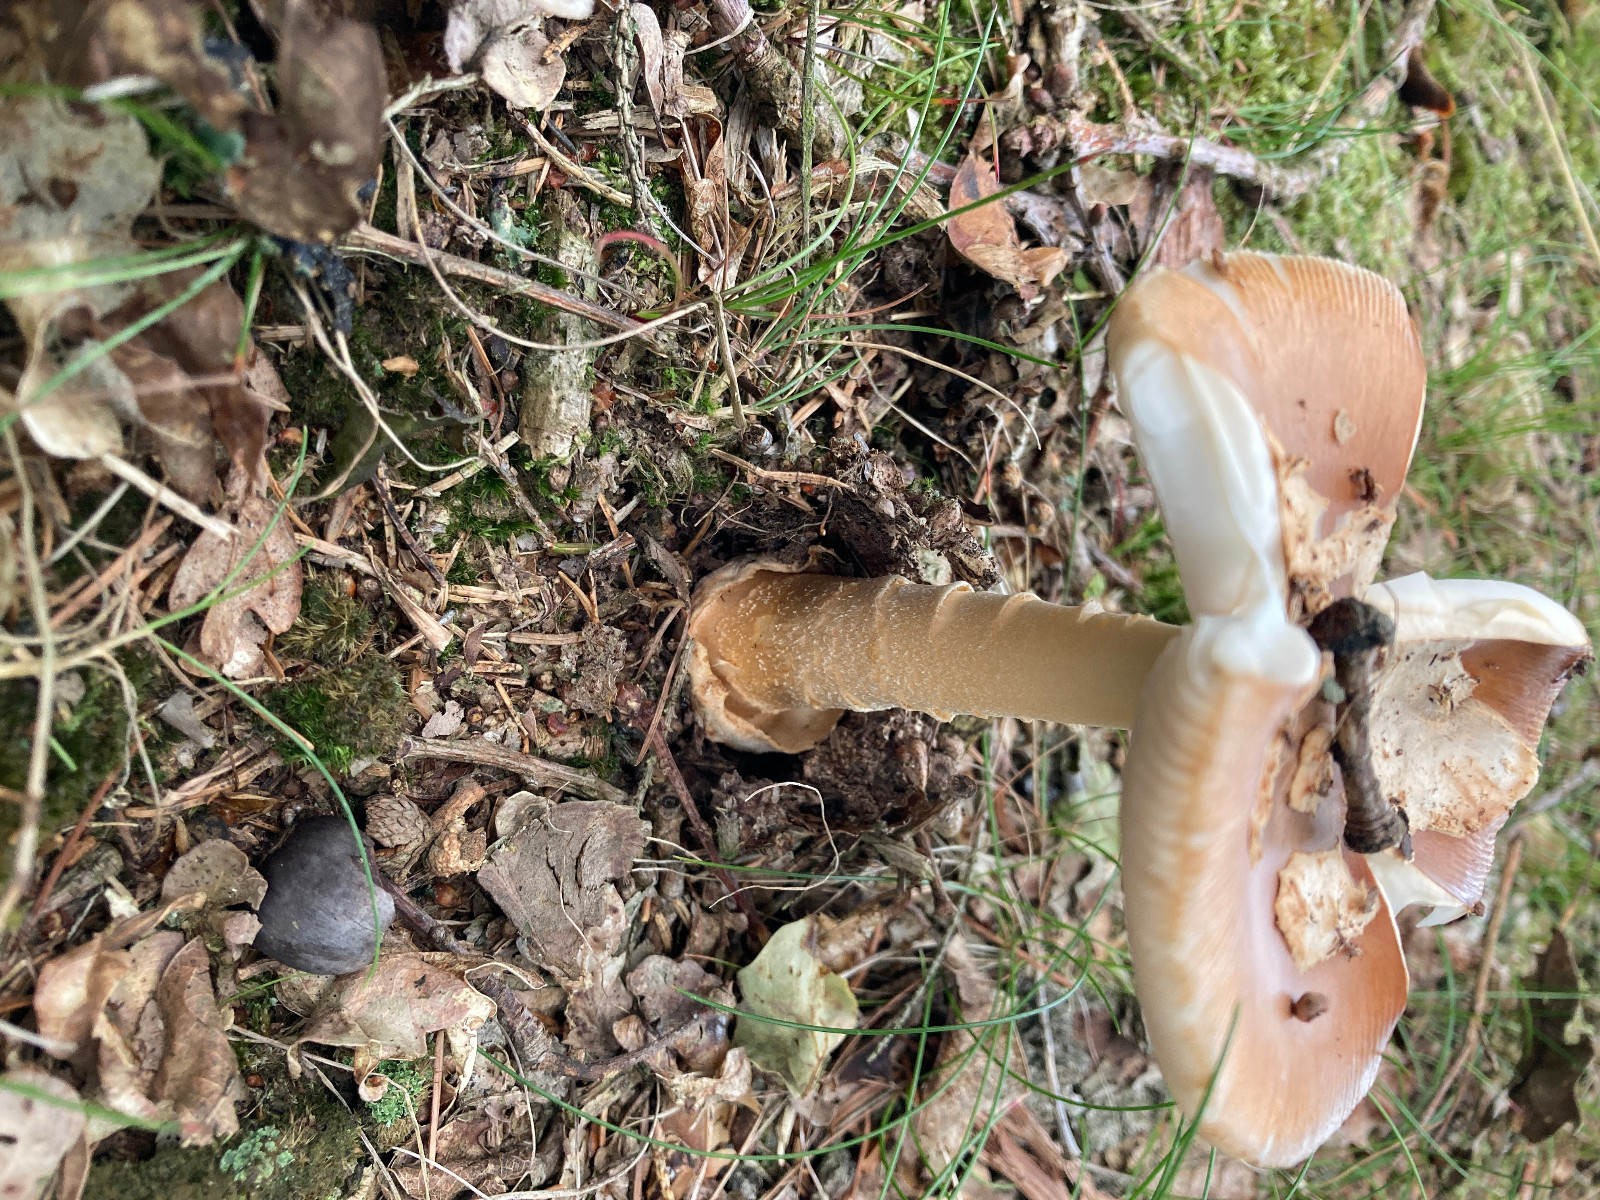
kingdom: Fungi
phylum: Basidiomycota
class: Agaricomycetes
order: Agaricales
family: Amanitaceae
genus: Amanita
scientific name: Amanita fulva
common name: brun kam-fluesvamp
